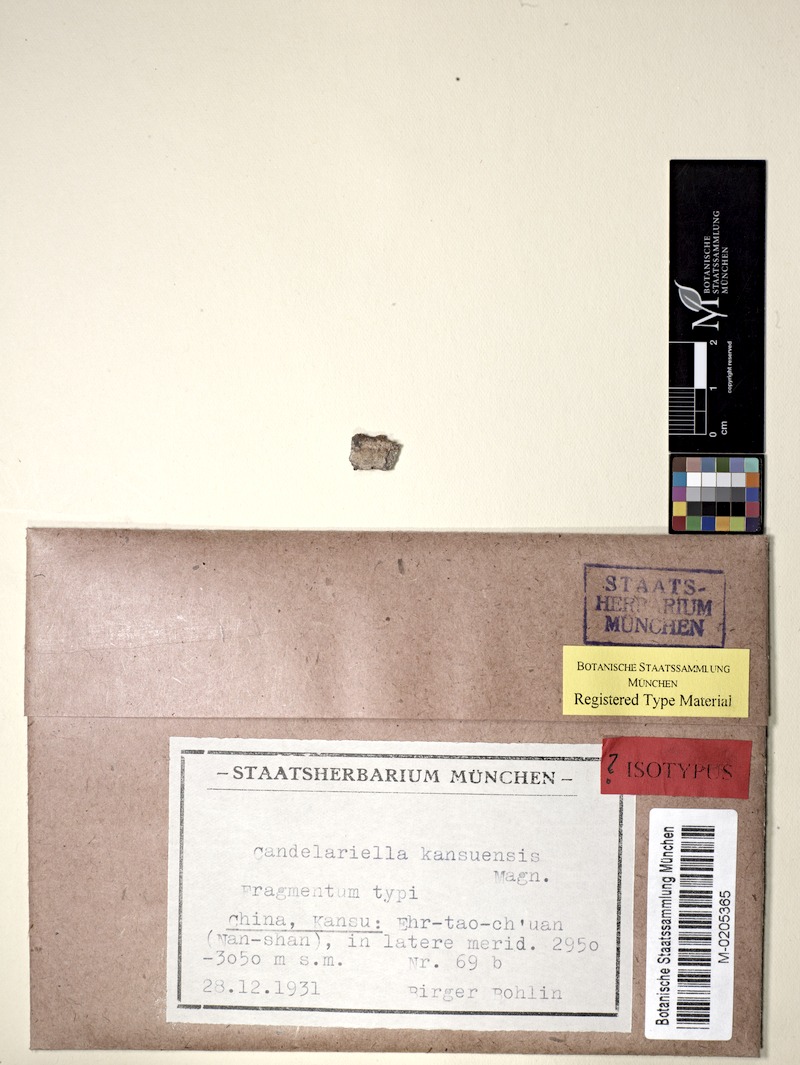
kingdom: Fungi
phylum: Ascomycota
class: Candelariomycetes
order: Candelariales
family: Candelariaceae
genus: Candelariella
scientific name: Candelariella kansuensis
